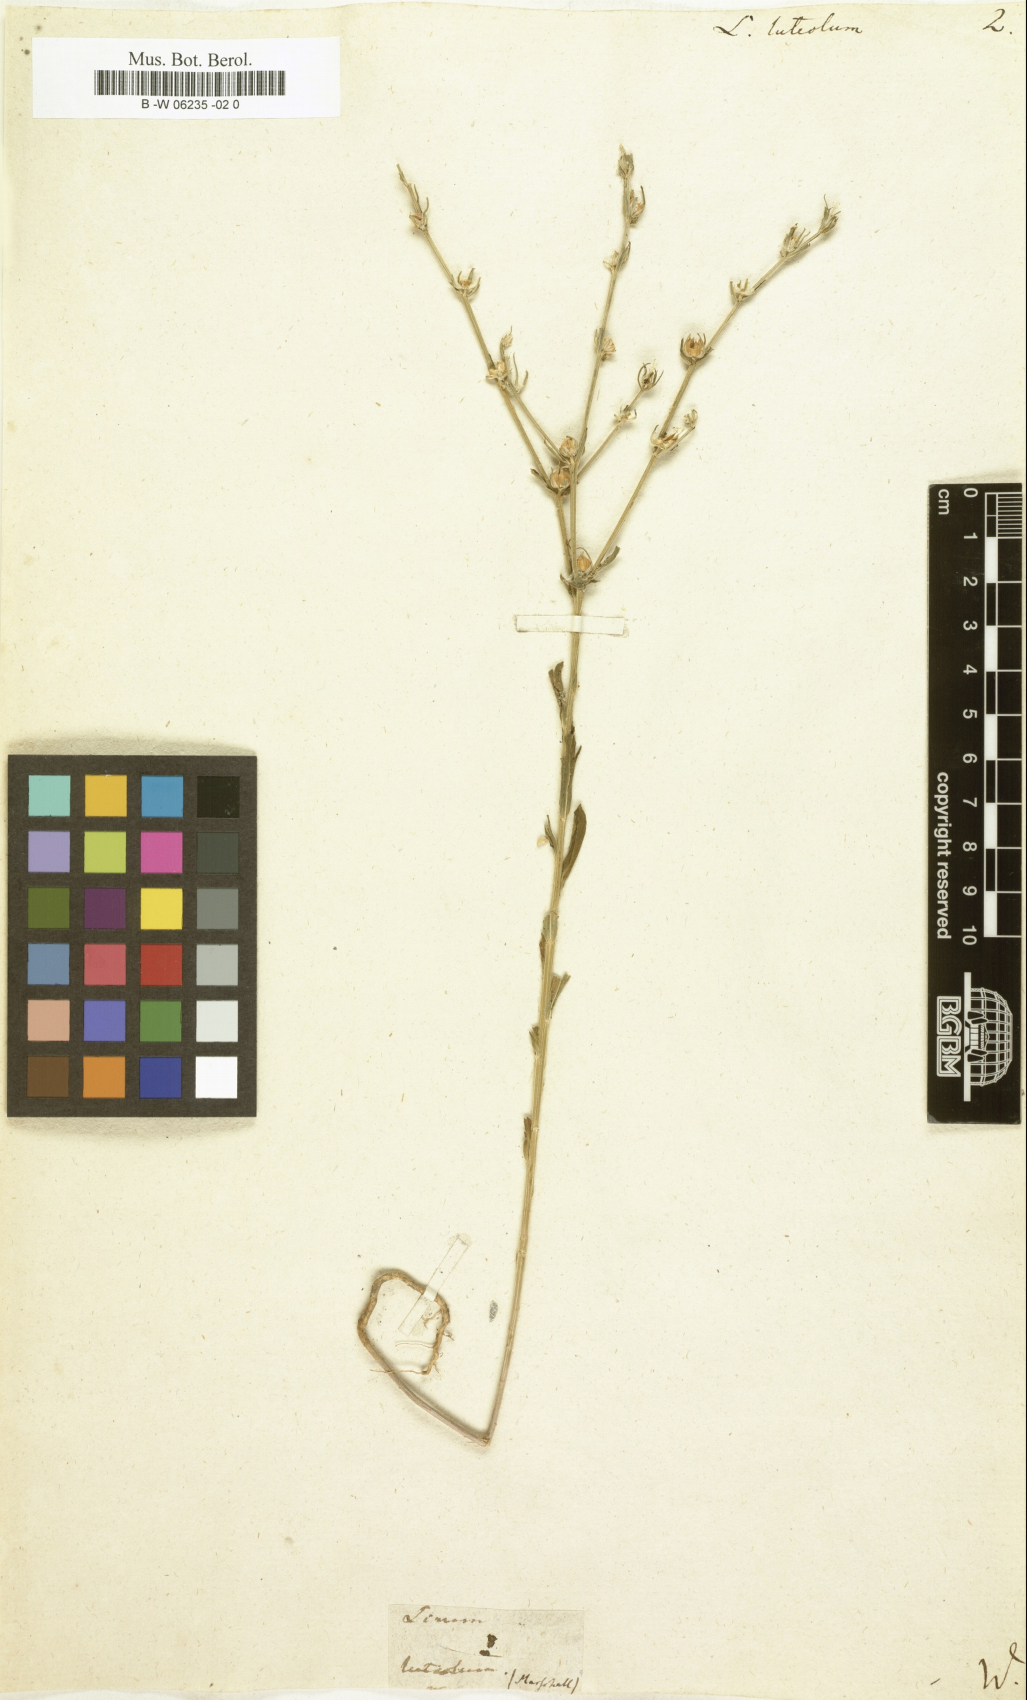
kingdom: Plantae
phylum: Tracheophyta
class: Magnoliopsida
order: Malpighiales
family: Linaceae
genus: Linum
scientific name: Linum nodiflorum
